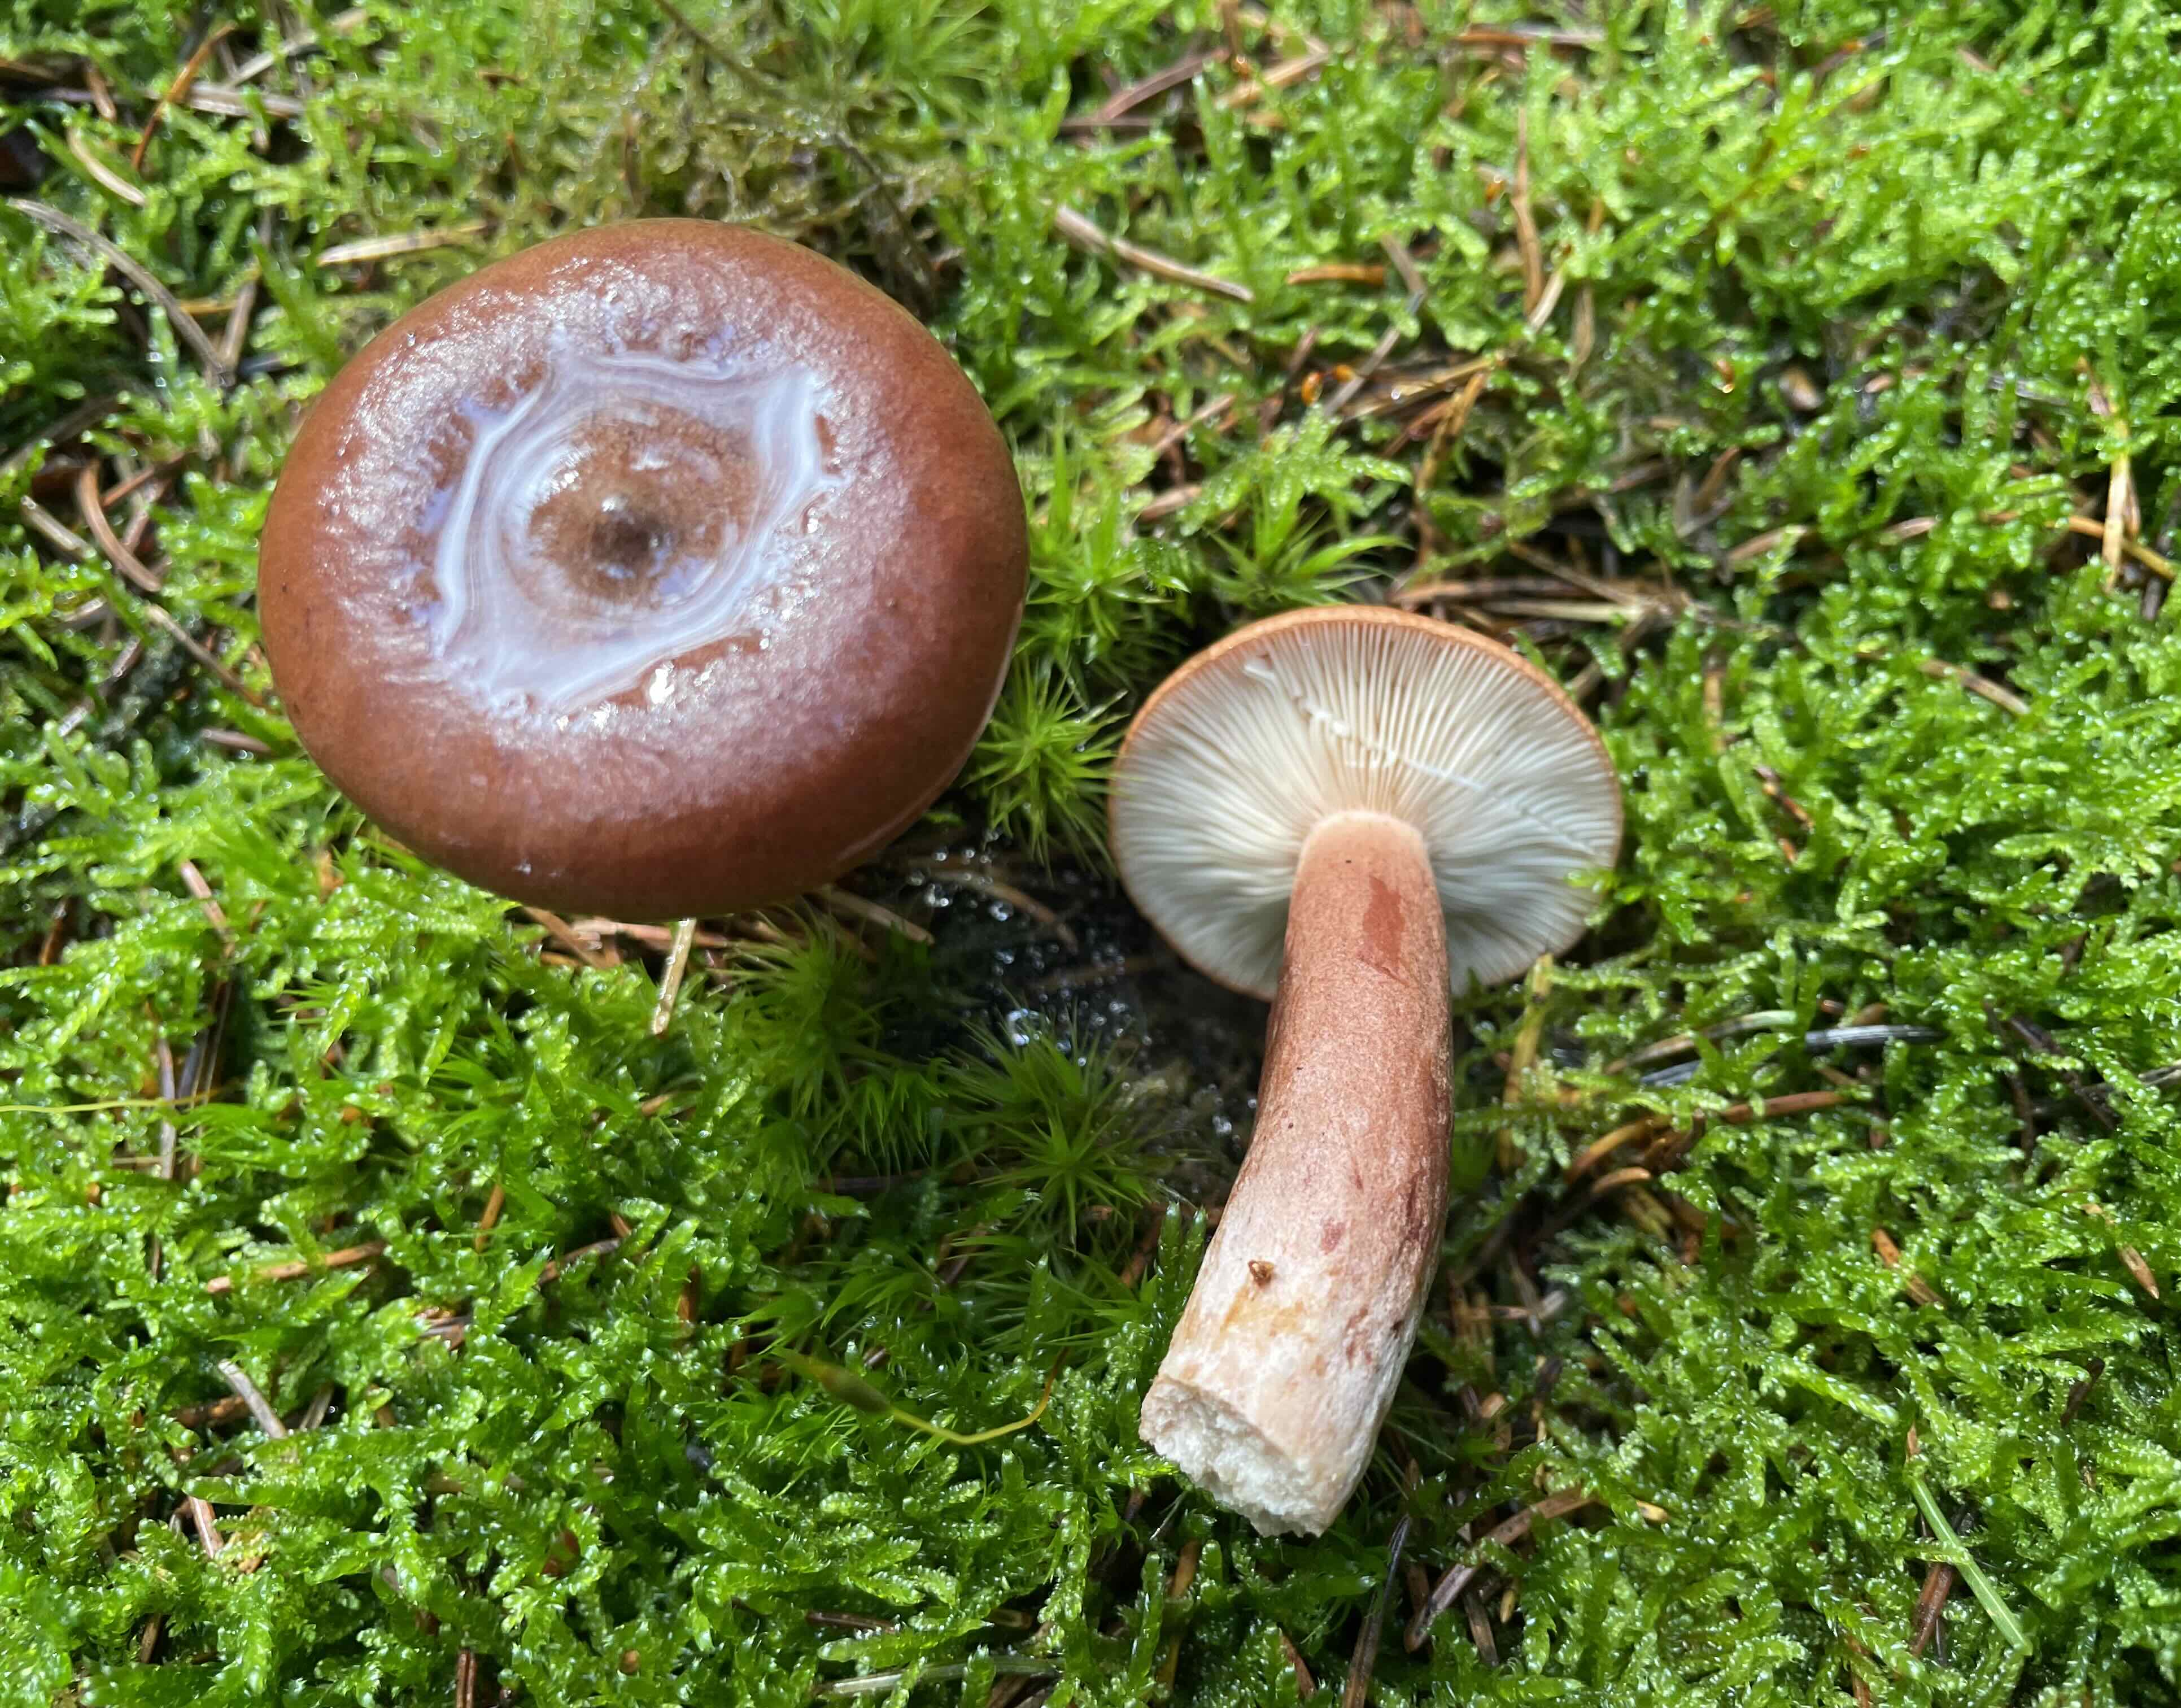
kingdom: Fungi
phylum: Basidiomycota
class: Agaricomycetes
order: Russulales
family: Russulaceae
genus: Lactarius
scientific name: Lactarius rufus
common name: rødbrun mælkehat
